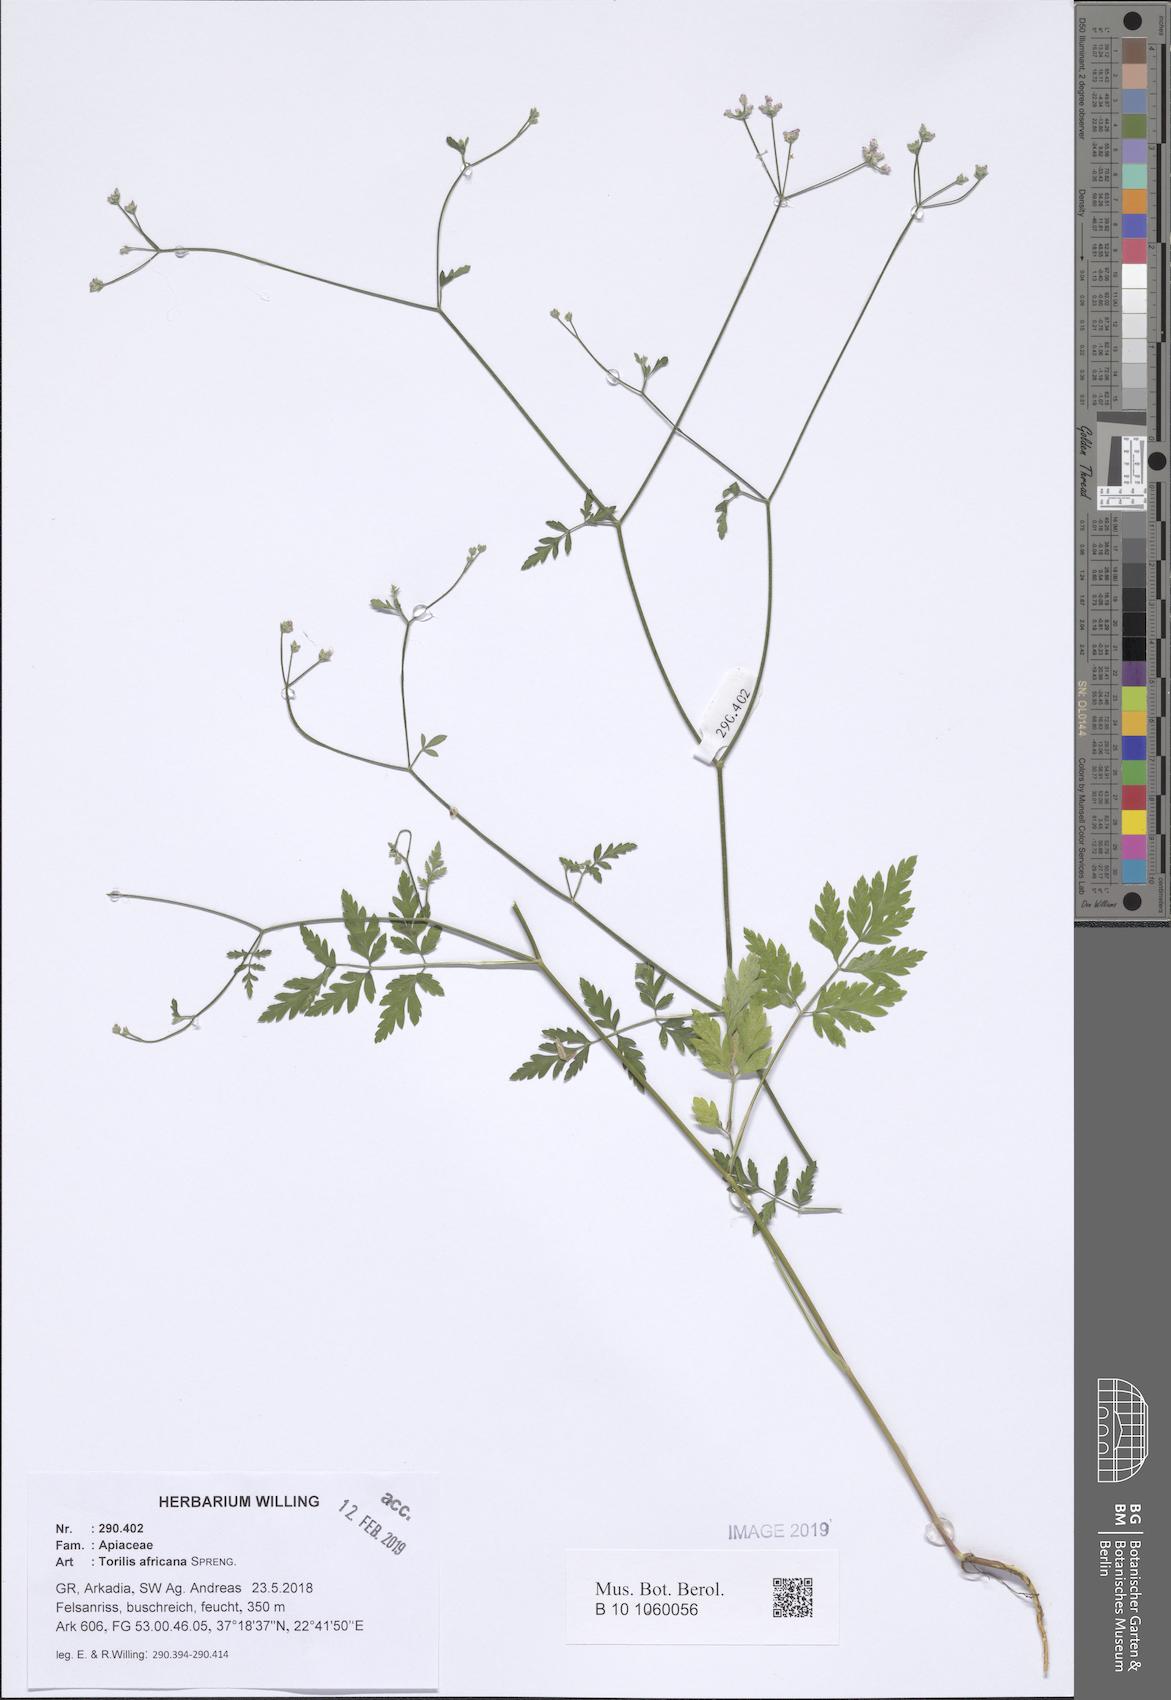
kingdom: Plantae
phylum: Tracheophyta
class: Magnoliopsida
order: Apiales
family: Apiaceae
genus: Torilis
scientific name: Torilis africana
